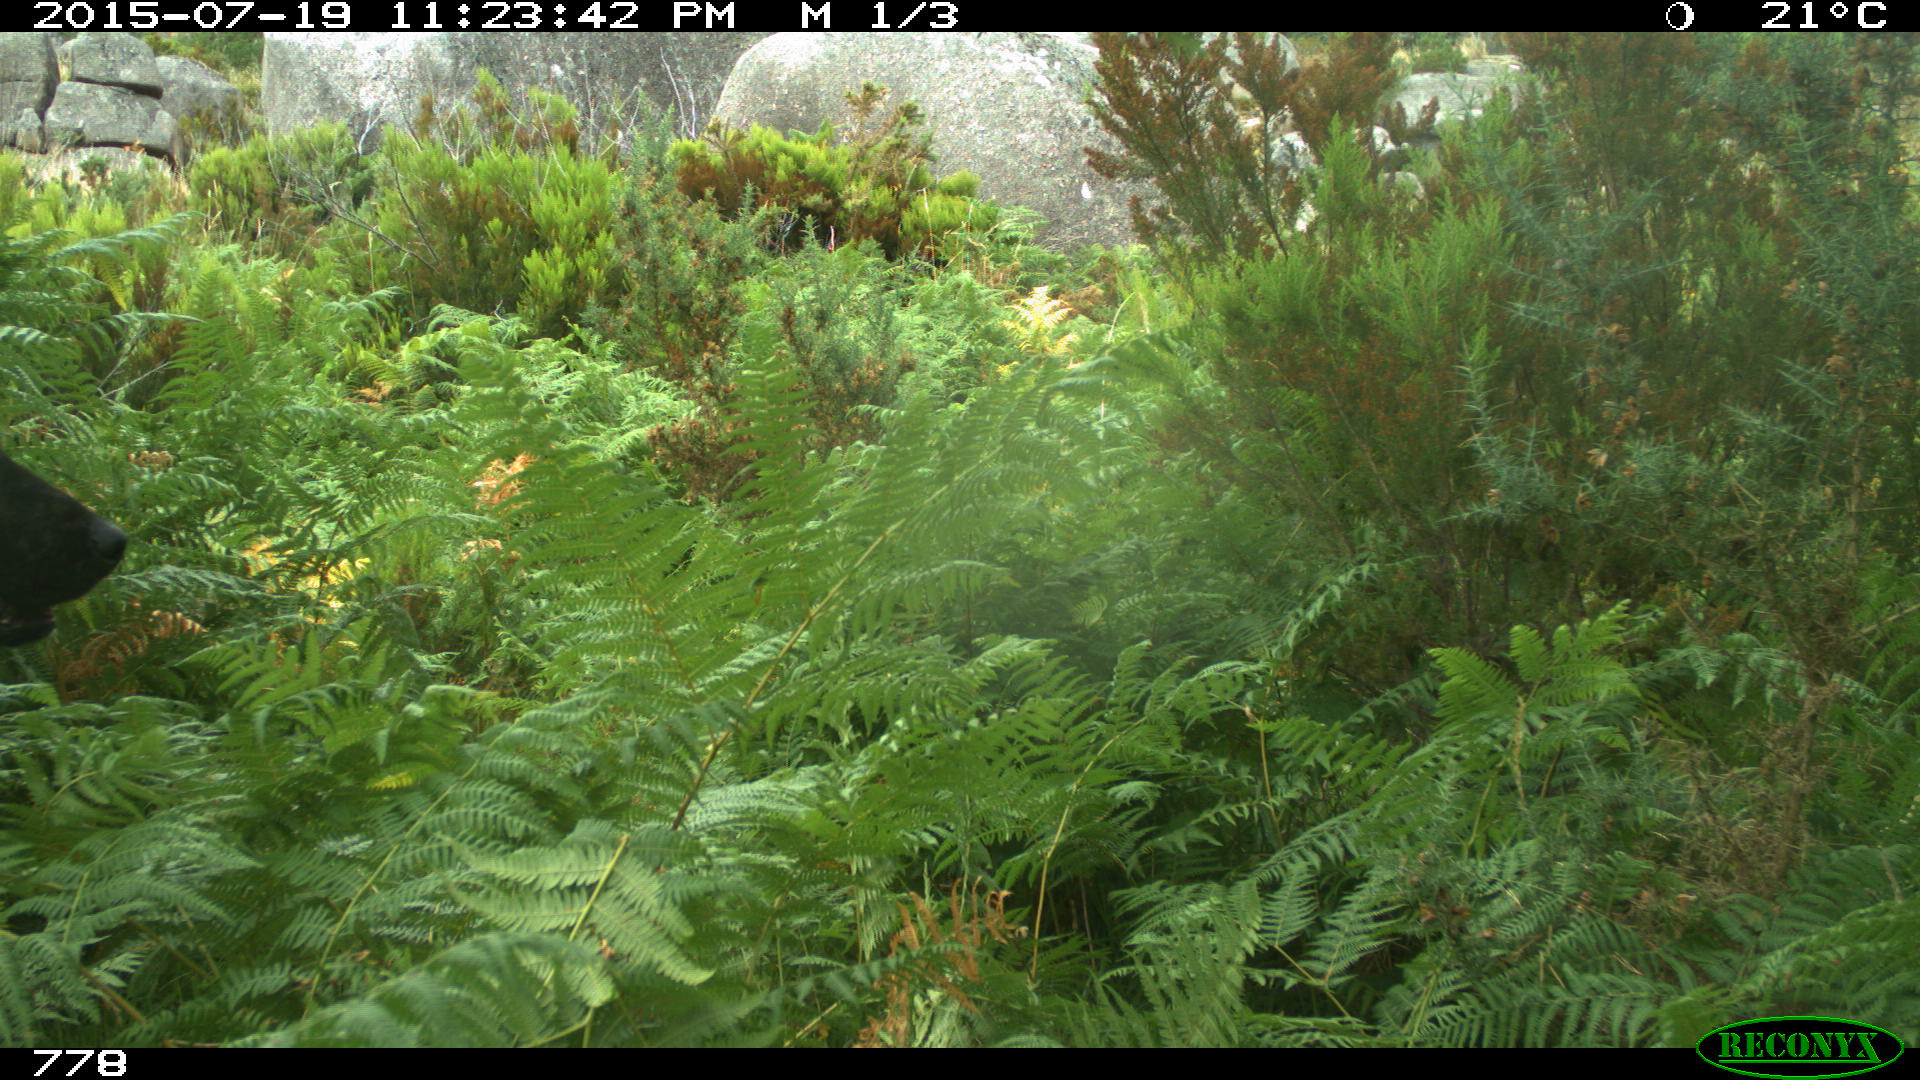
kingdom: Animalia
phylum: Chordata
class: Mammalia
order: Carnivora
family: Canidae
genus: Canis
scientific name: Canis lupus
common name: Gray wolf
